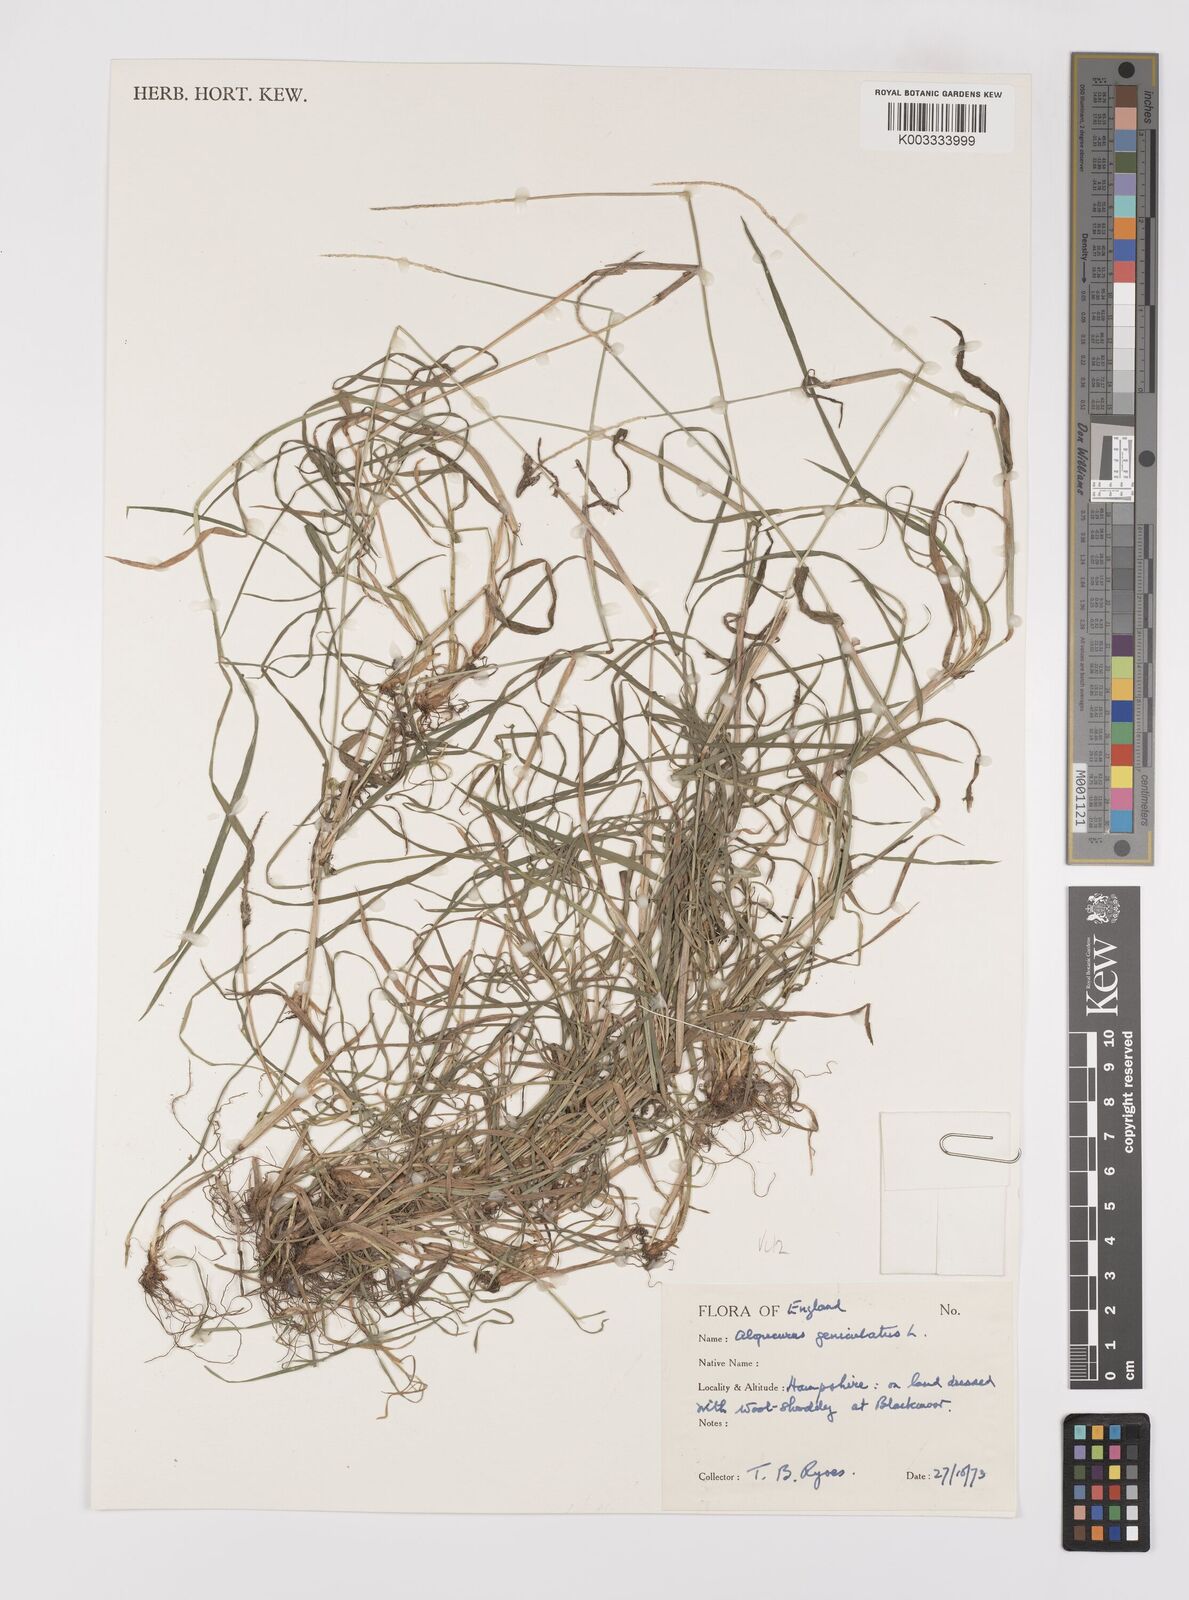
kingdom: Plantae
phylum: Tracheophyta
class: Liliopsida
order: Poales
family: Poaceae
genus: Alopecurus
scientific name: Alopecurus geniculatus
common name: Water foxtail
